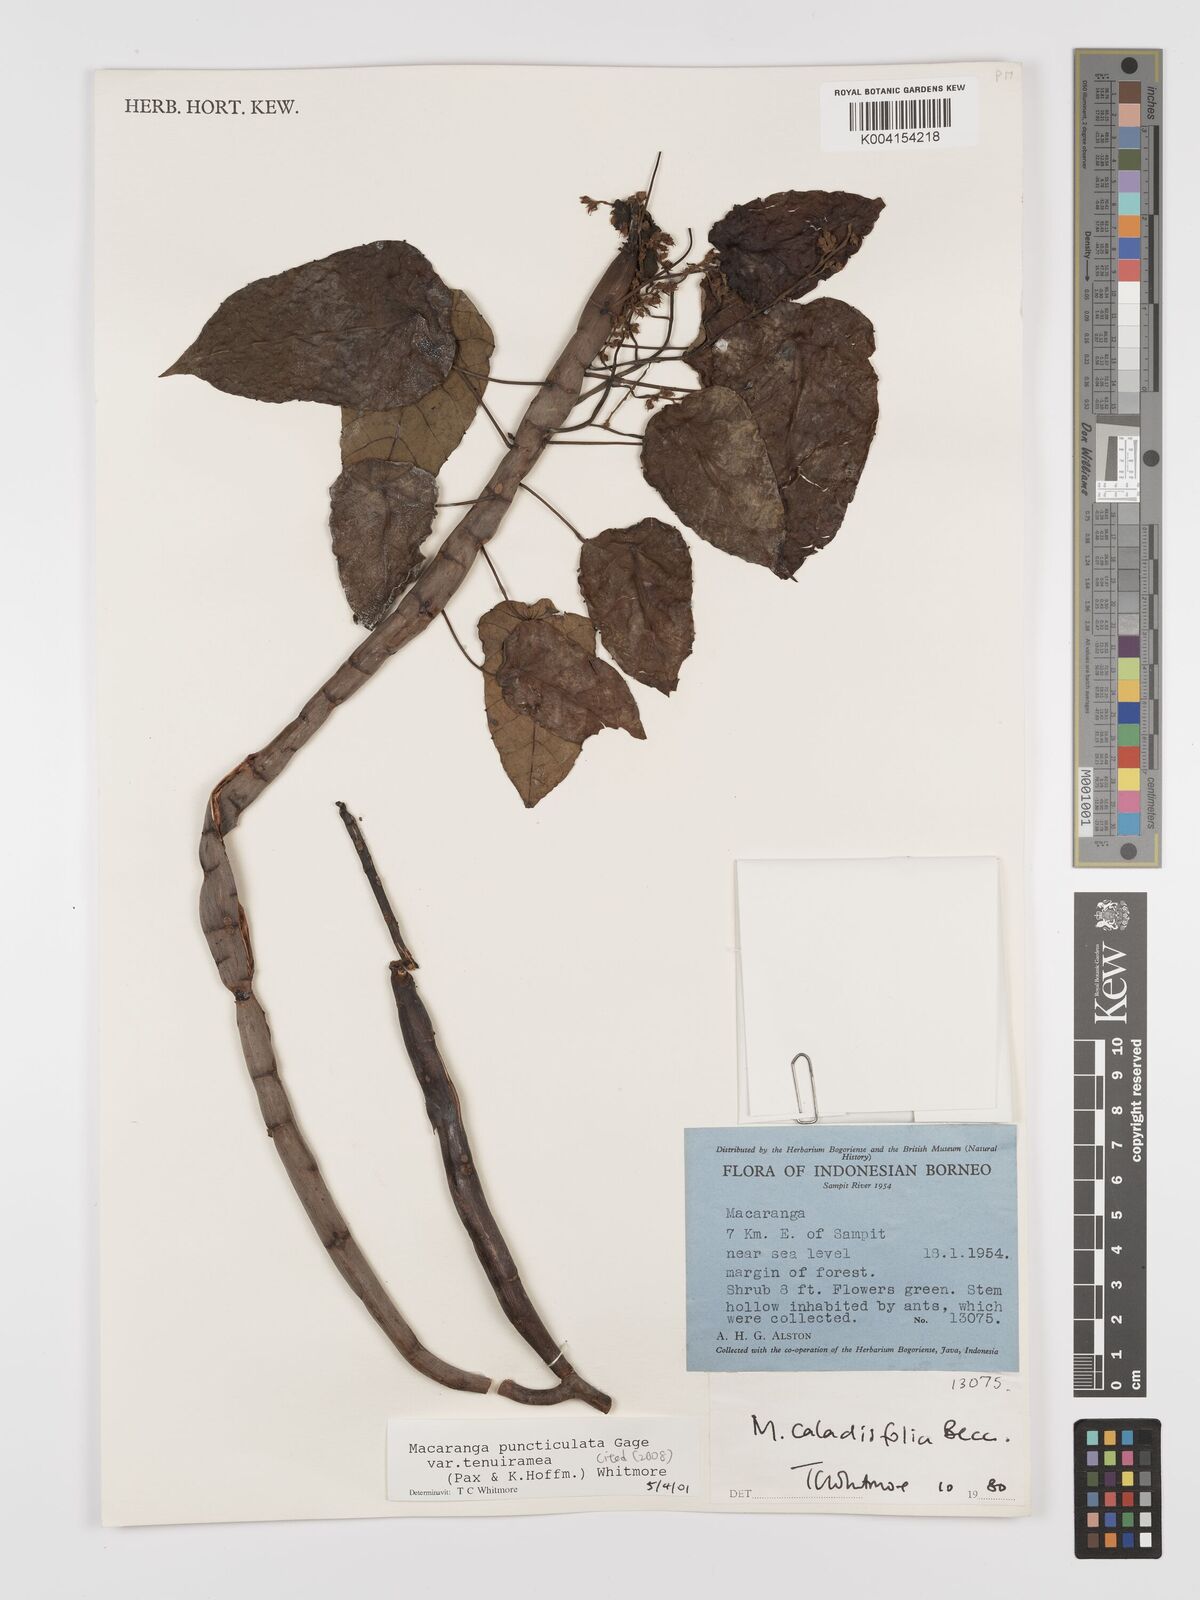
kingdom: Plantae
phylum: Tracheophyta
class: Magnoliopsida
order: Malpighiales
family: Euphorbiaceae
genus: Macaranga
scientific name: Macaranga puncticulata
